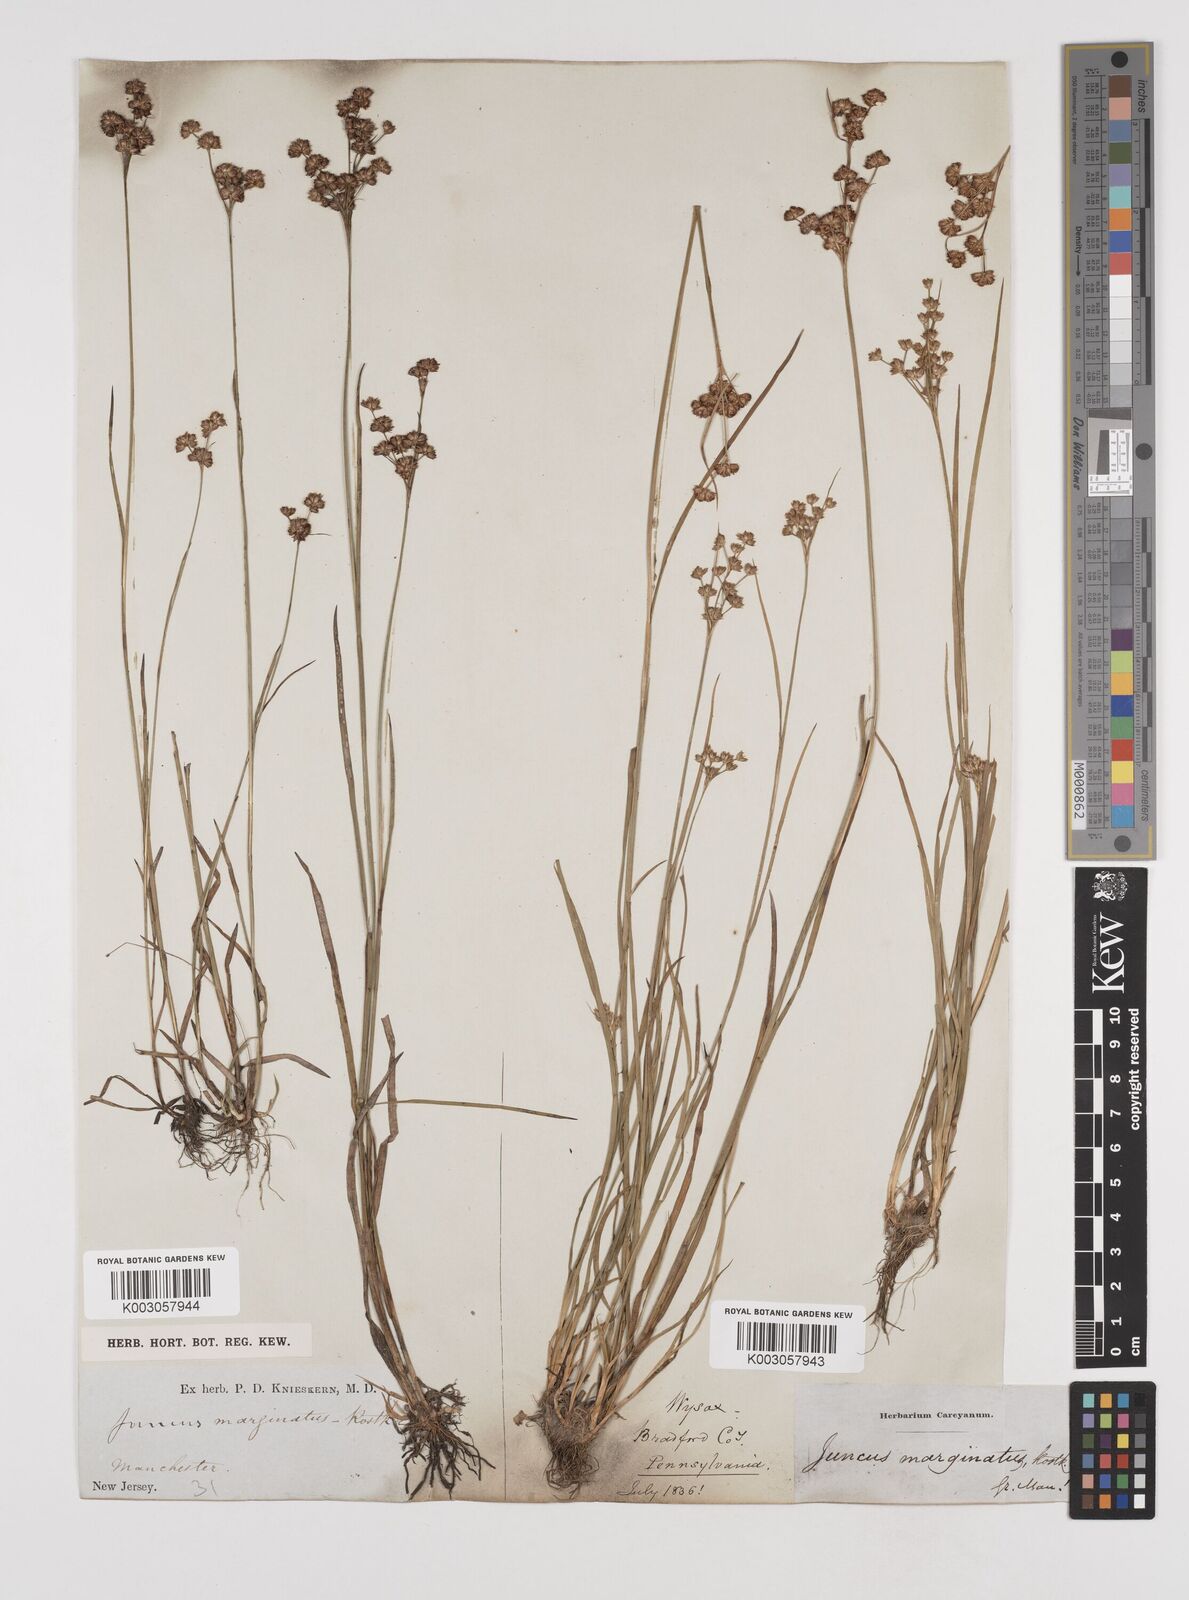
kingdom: Plantae
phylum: Tracheophyta
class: Liliopsida
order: Poales
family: Juncaceae
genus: Juncus
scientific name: Juncus marginatus
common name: Grass-leaf rush
